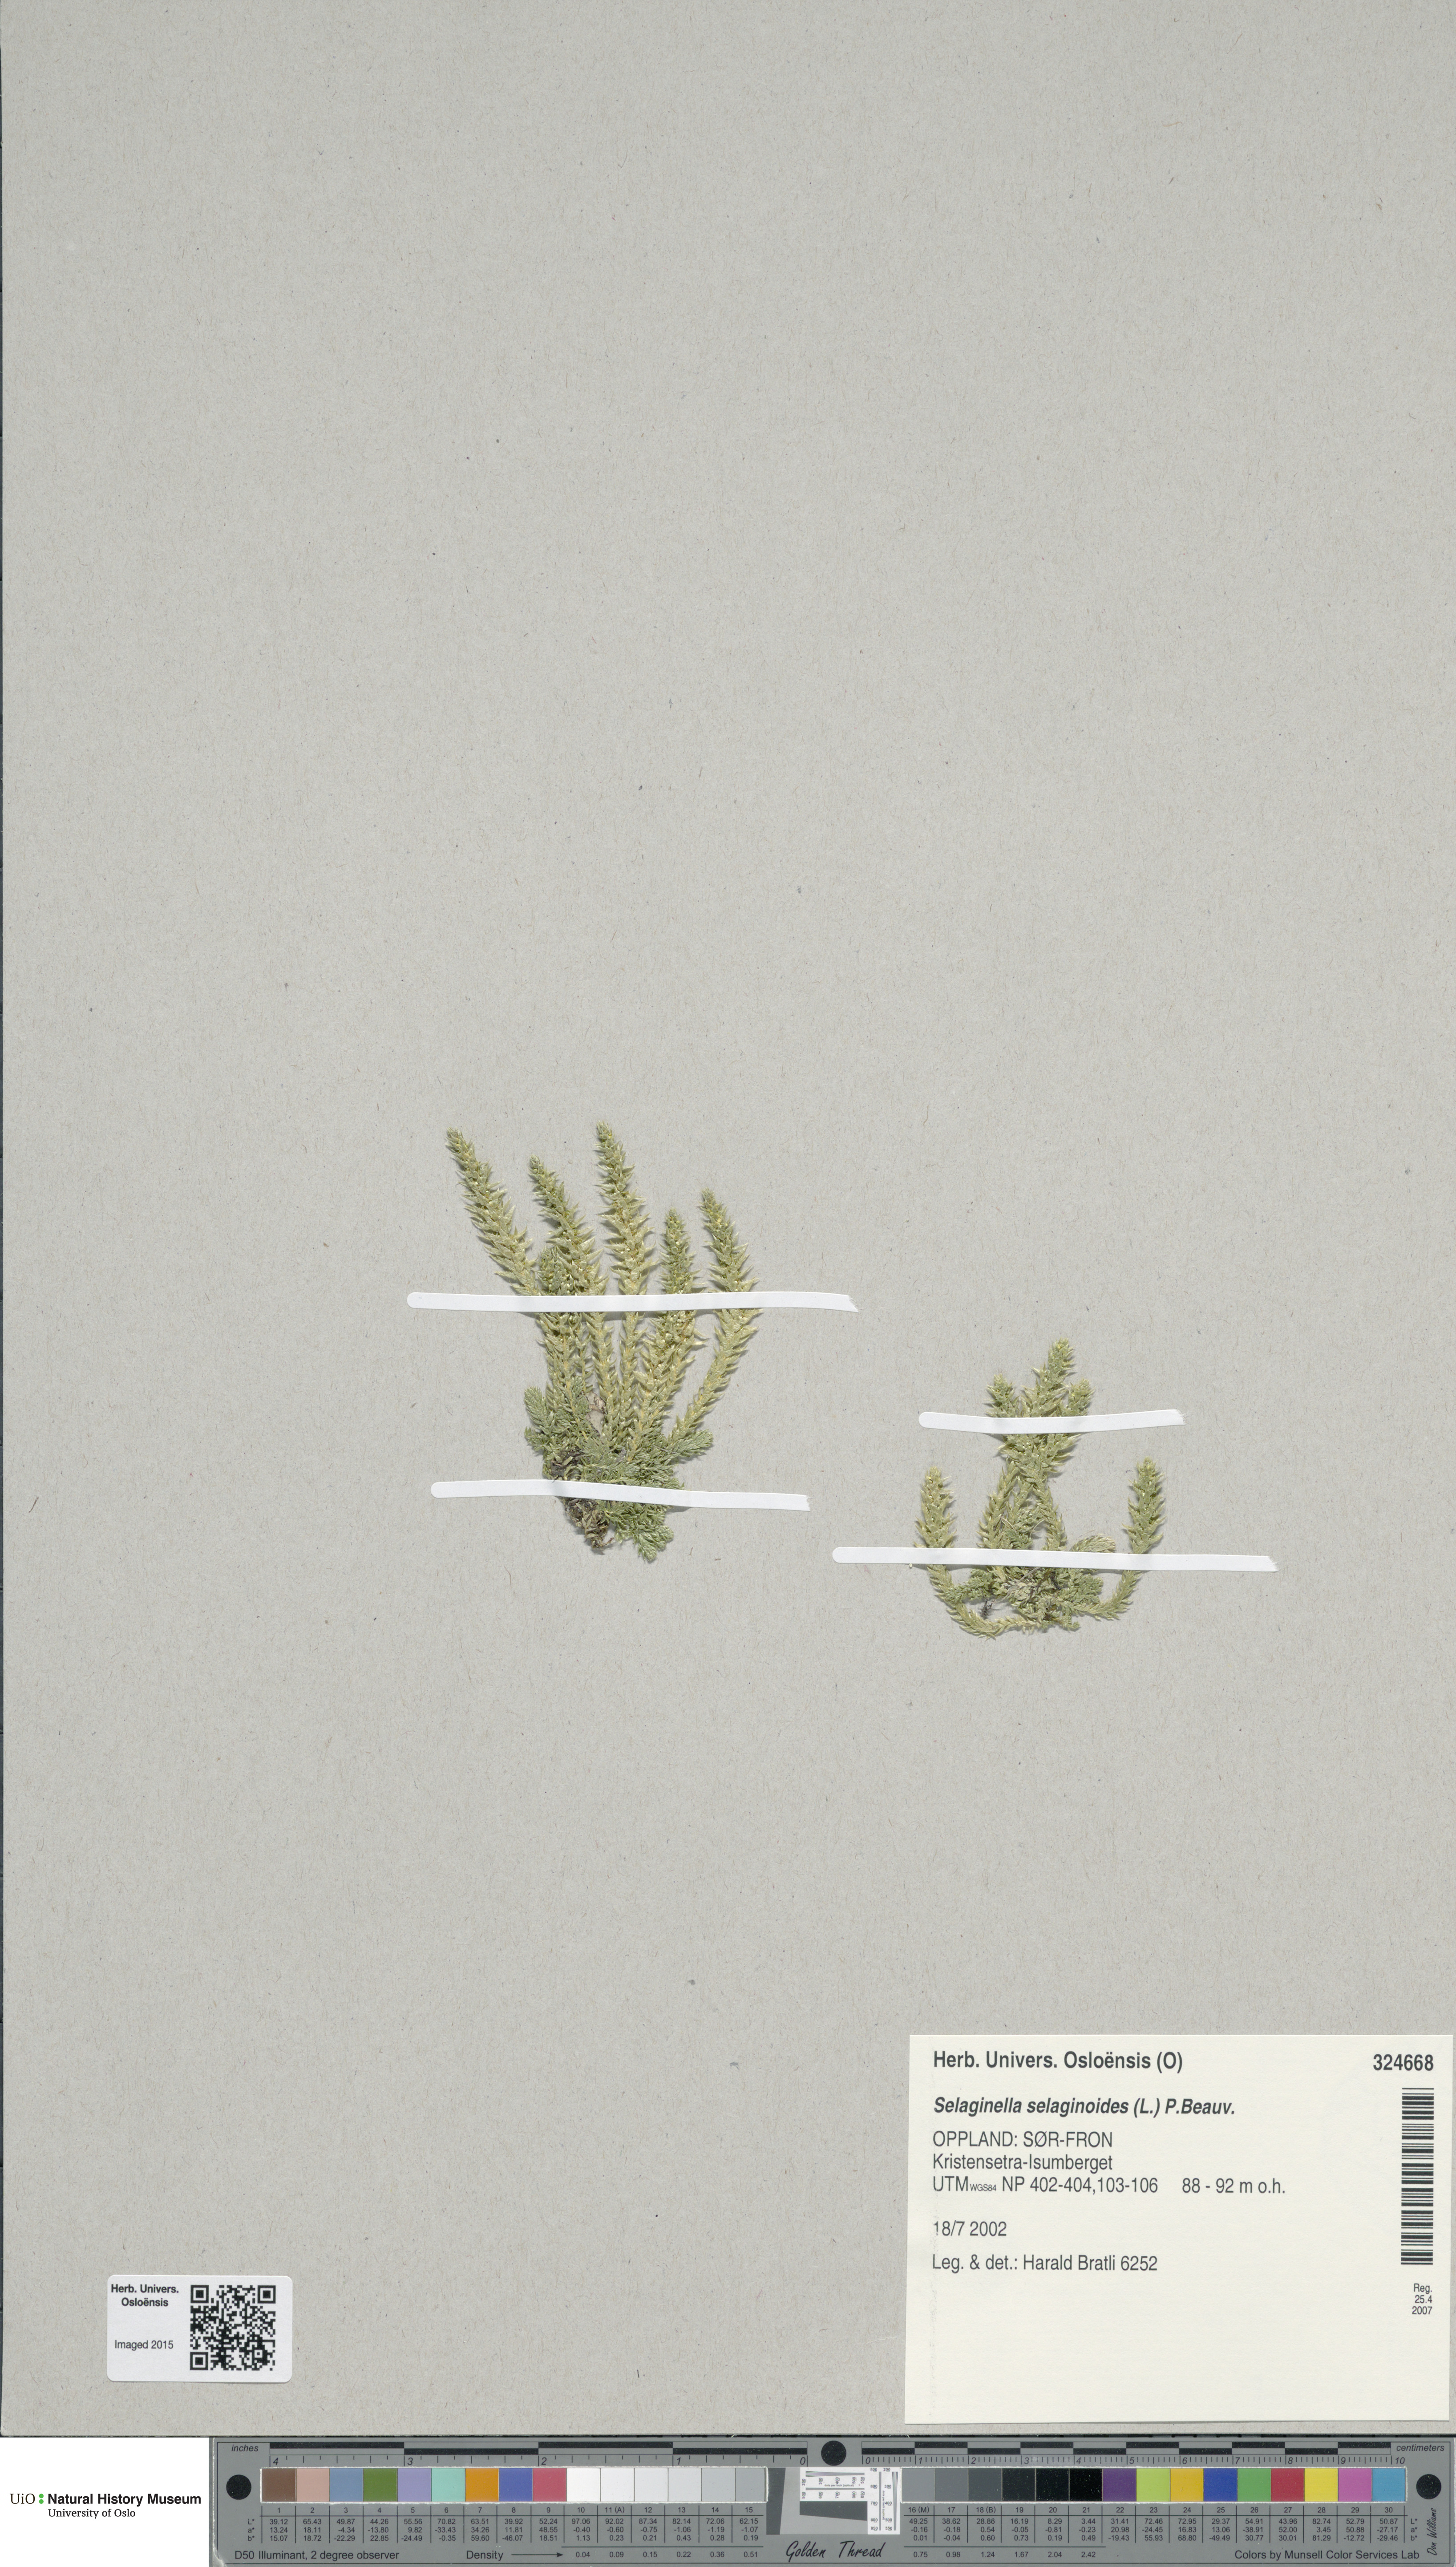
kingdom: Plantae
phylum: Tracheophyta
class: Lycopodiopsida
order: Selaginellales
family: Selaginellaceae
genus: Selaginella
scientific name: Selaginella selaginoides
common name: Prickly mountain-moss
